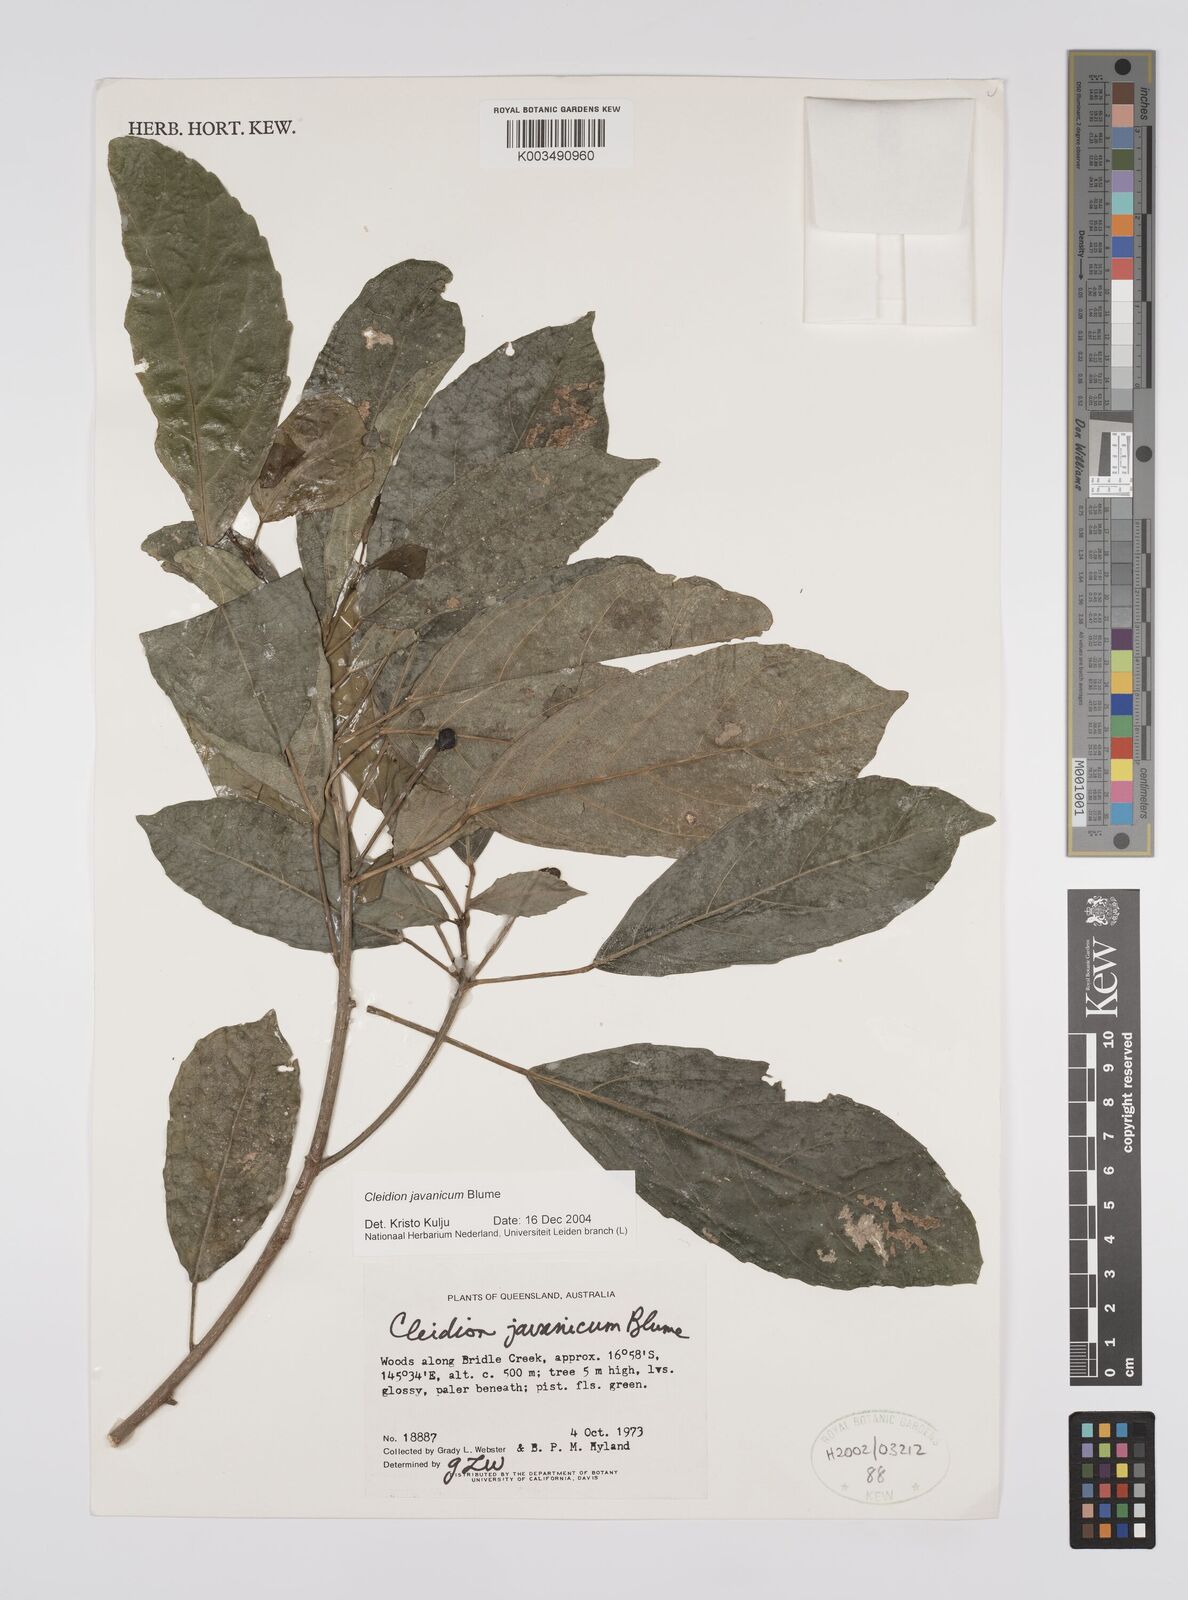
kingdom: Plantae
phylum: Tracheophyta
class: Magnoliopsida
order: Malpighiales
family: Euphorbiaceae
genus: Cleidion
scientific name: Cleidion javanicum
